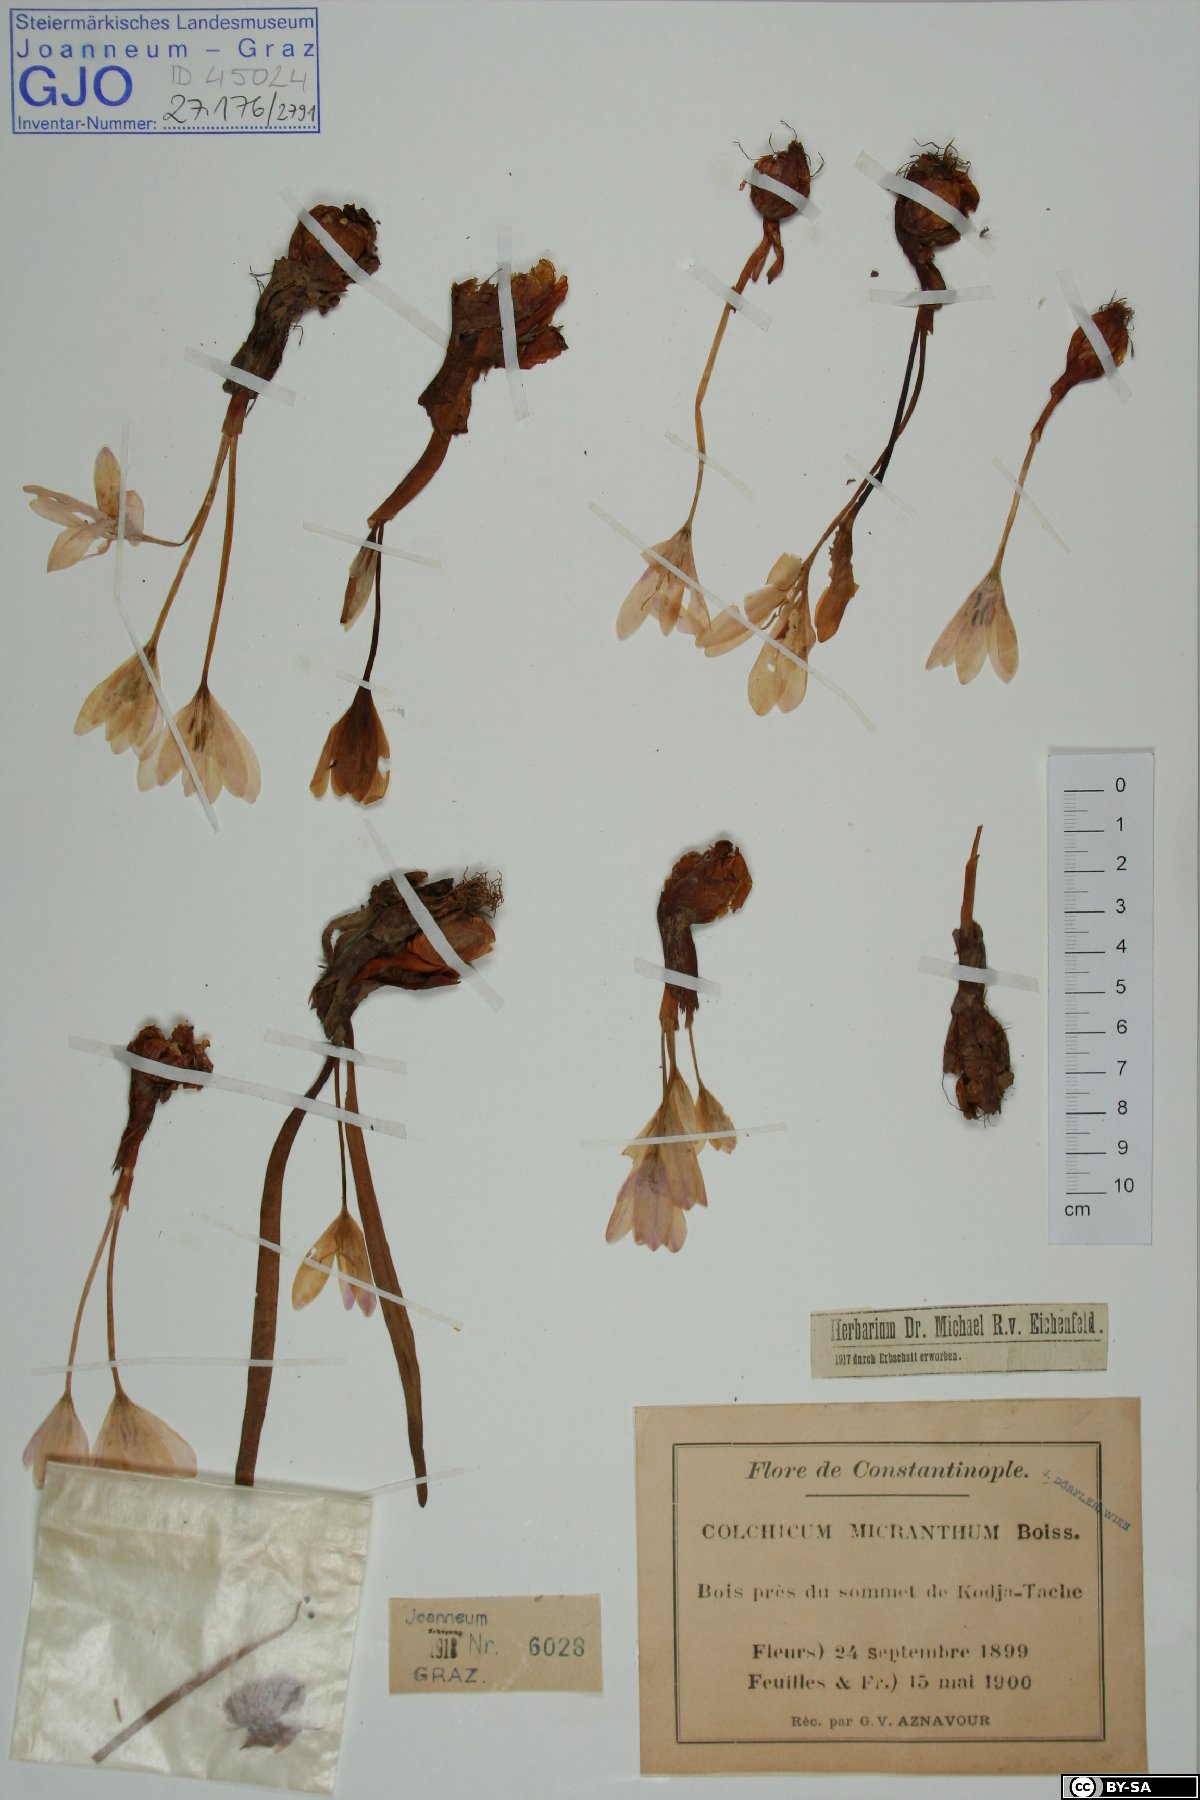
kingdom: Plantae
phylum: Tracheophyta
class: Liliopsida
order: Liliales
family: Colchicaceae
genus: Colchicum
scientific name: Colchicum micranthum
